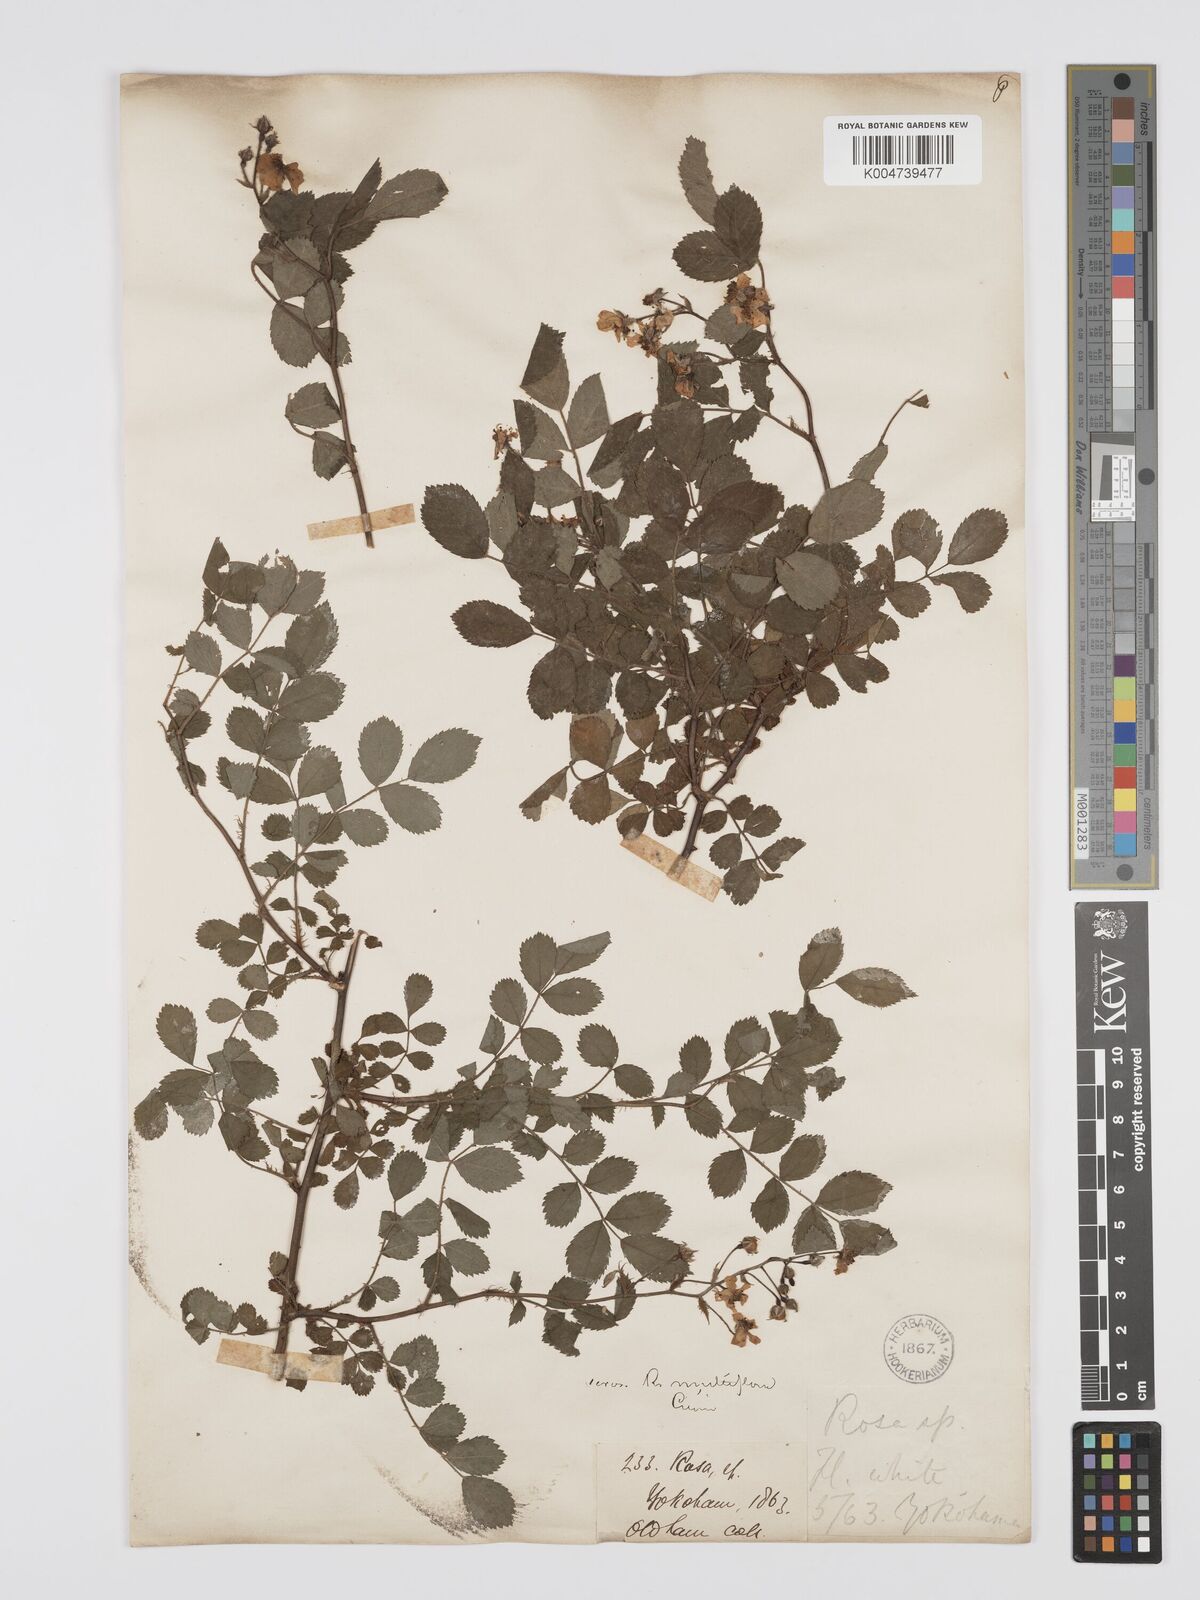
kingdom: Plantae
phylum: Tracheophyta
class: Magnoliopsida
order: Rosales
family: Rosaceae
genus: Rosa
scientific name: Rosa
